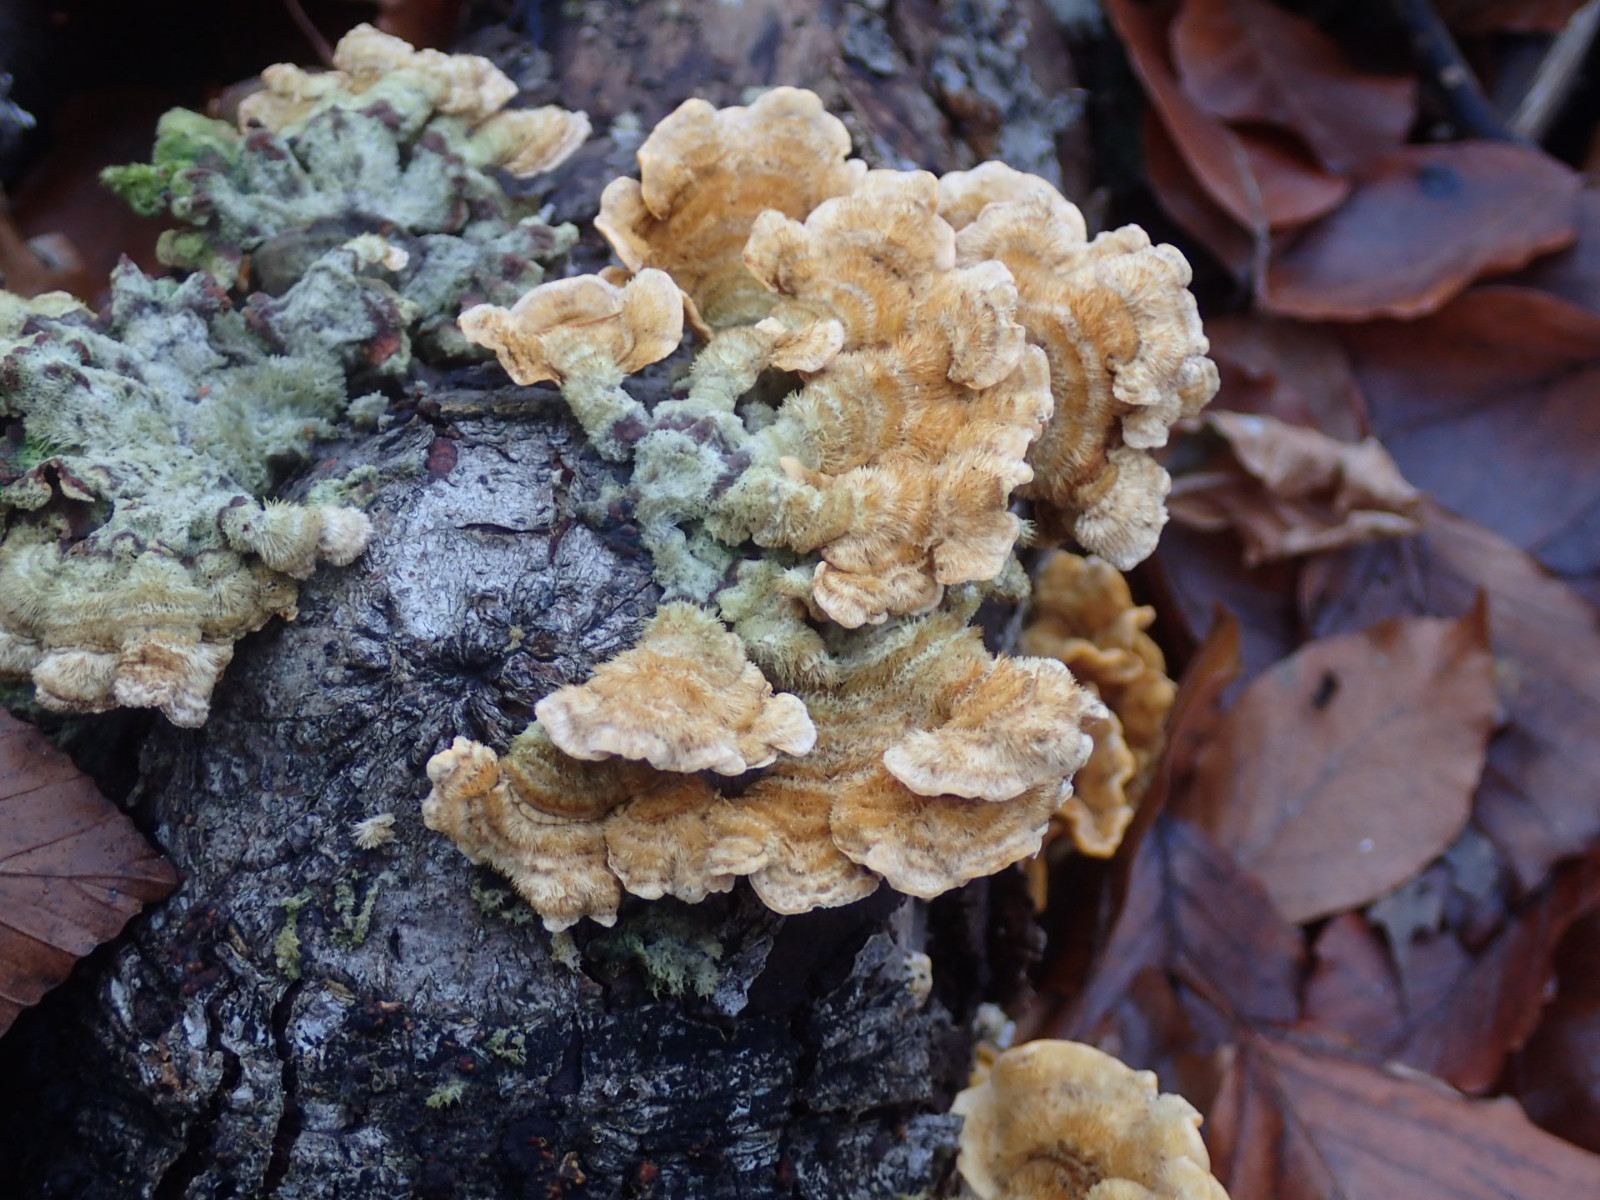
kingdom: Fungi
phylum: Basidiomycota
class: Agaricomycetes
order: Russulales
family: Stereaceae
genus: Stereum
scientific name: Stereum hirsutum
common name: håret lædersvamp
